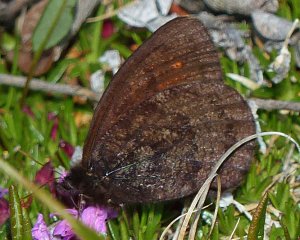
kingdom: Animalia
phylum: Arthropoda
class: Insecta
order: Lepidoptera
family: Nymphalidae
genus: Erebia
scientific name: Erebia rossii
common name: Ross's Alpine
